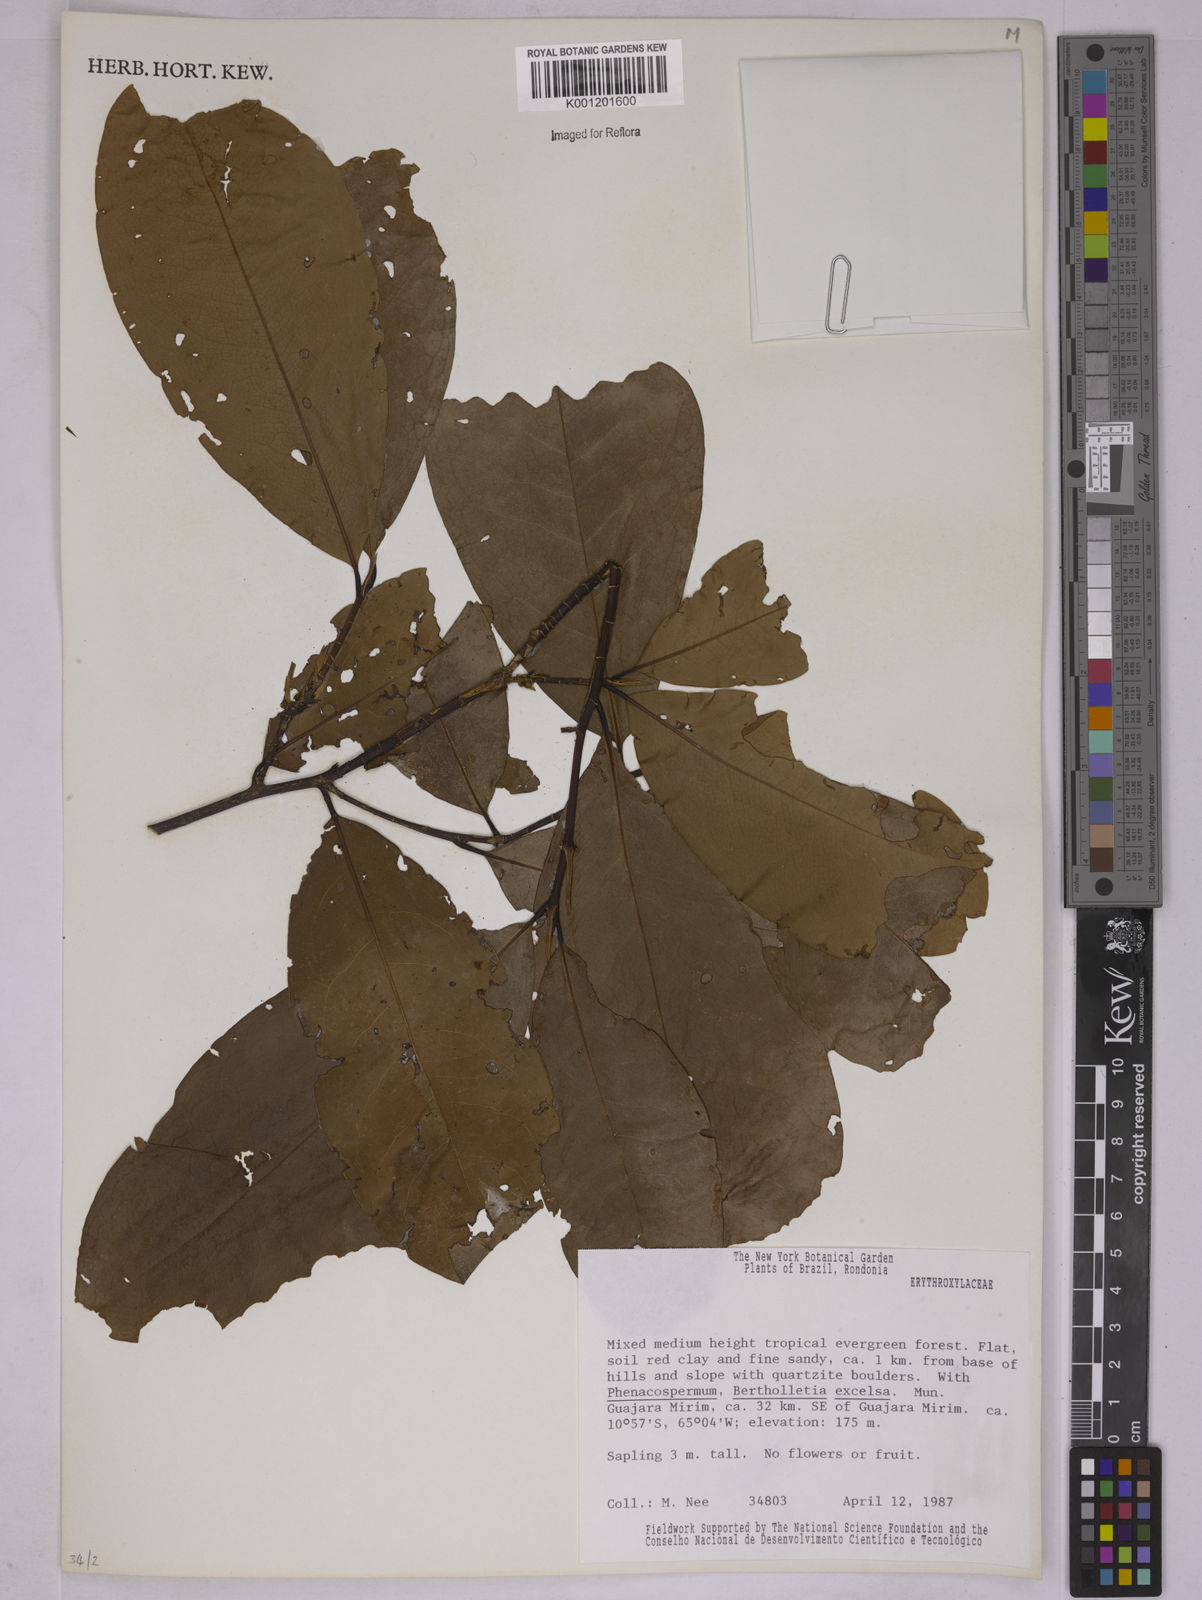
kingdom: Plantae
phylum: Tracheophyta
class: Magnoliopsida
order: Malpighiales
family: Erythroxylaceae
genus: Erythroxylum
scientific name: Erythroxylum
